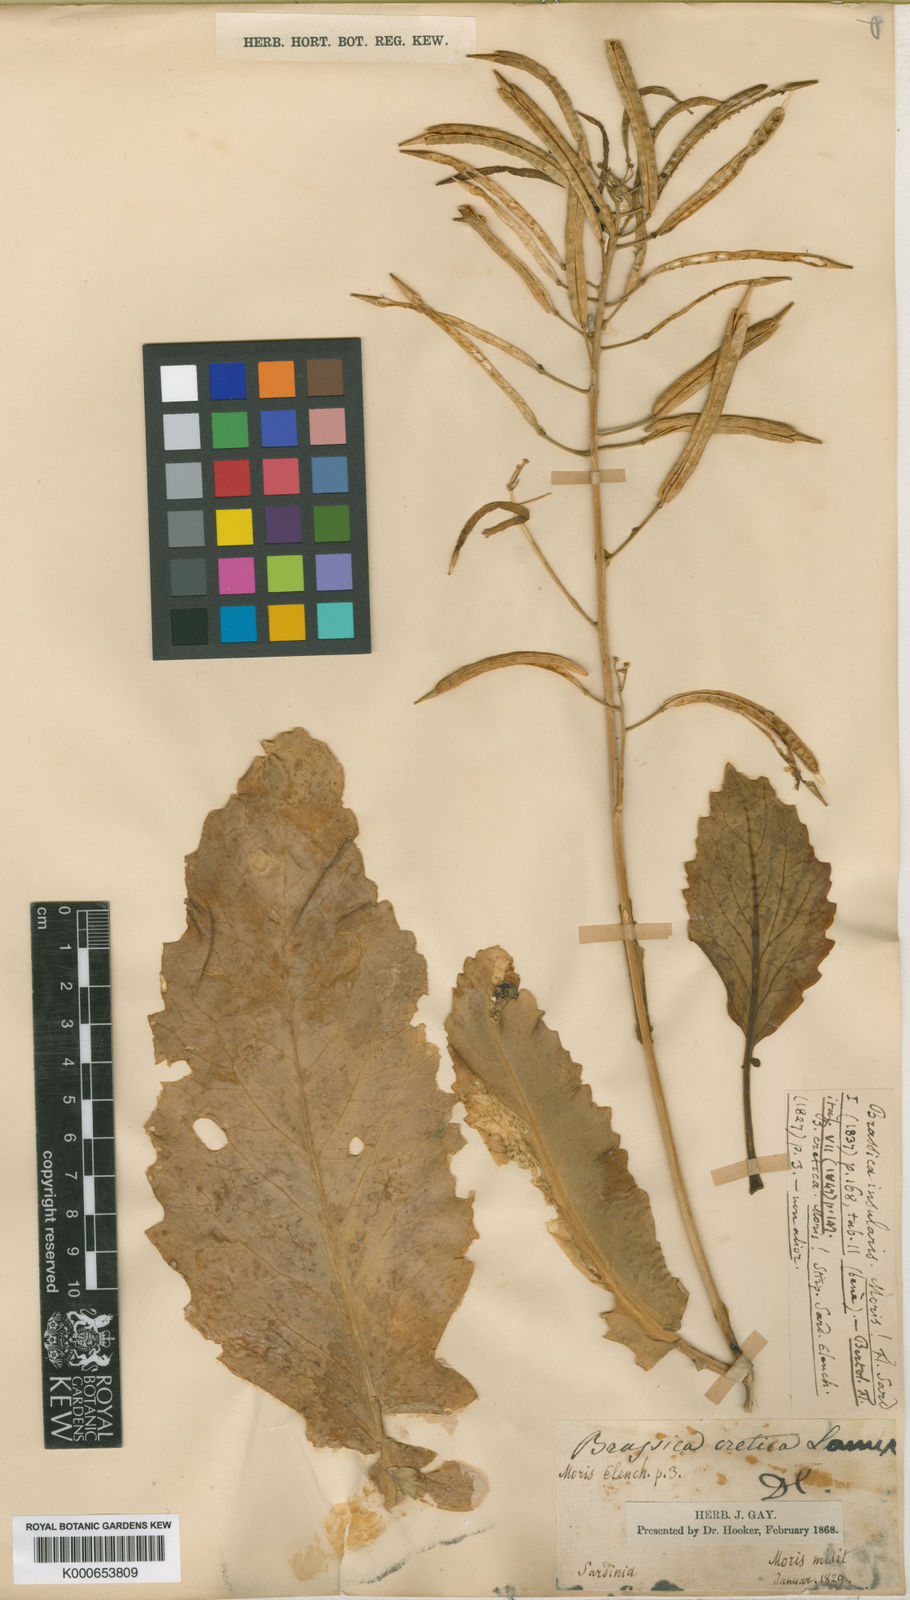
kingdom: Plantae
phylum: Tracheophyta
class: Magnoliopsida
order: Brassicales
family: Brassicaceae
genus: Brassica
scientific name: Brassica insularis
